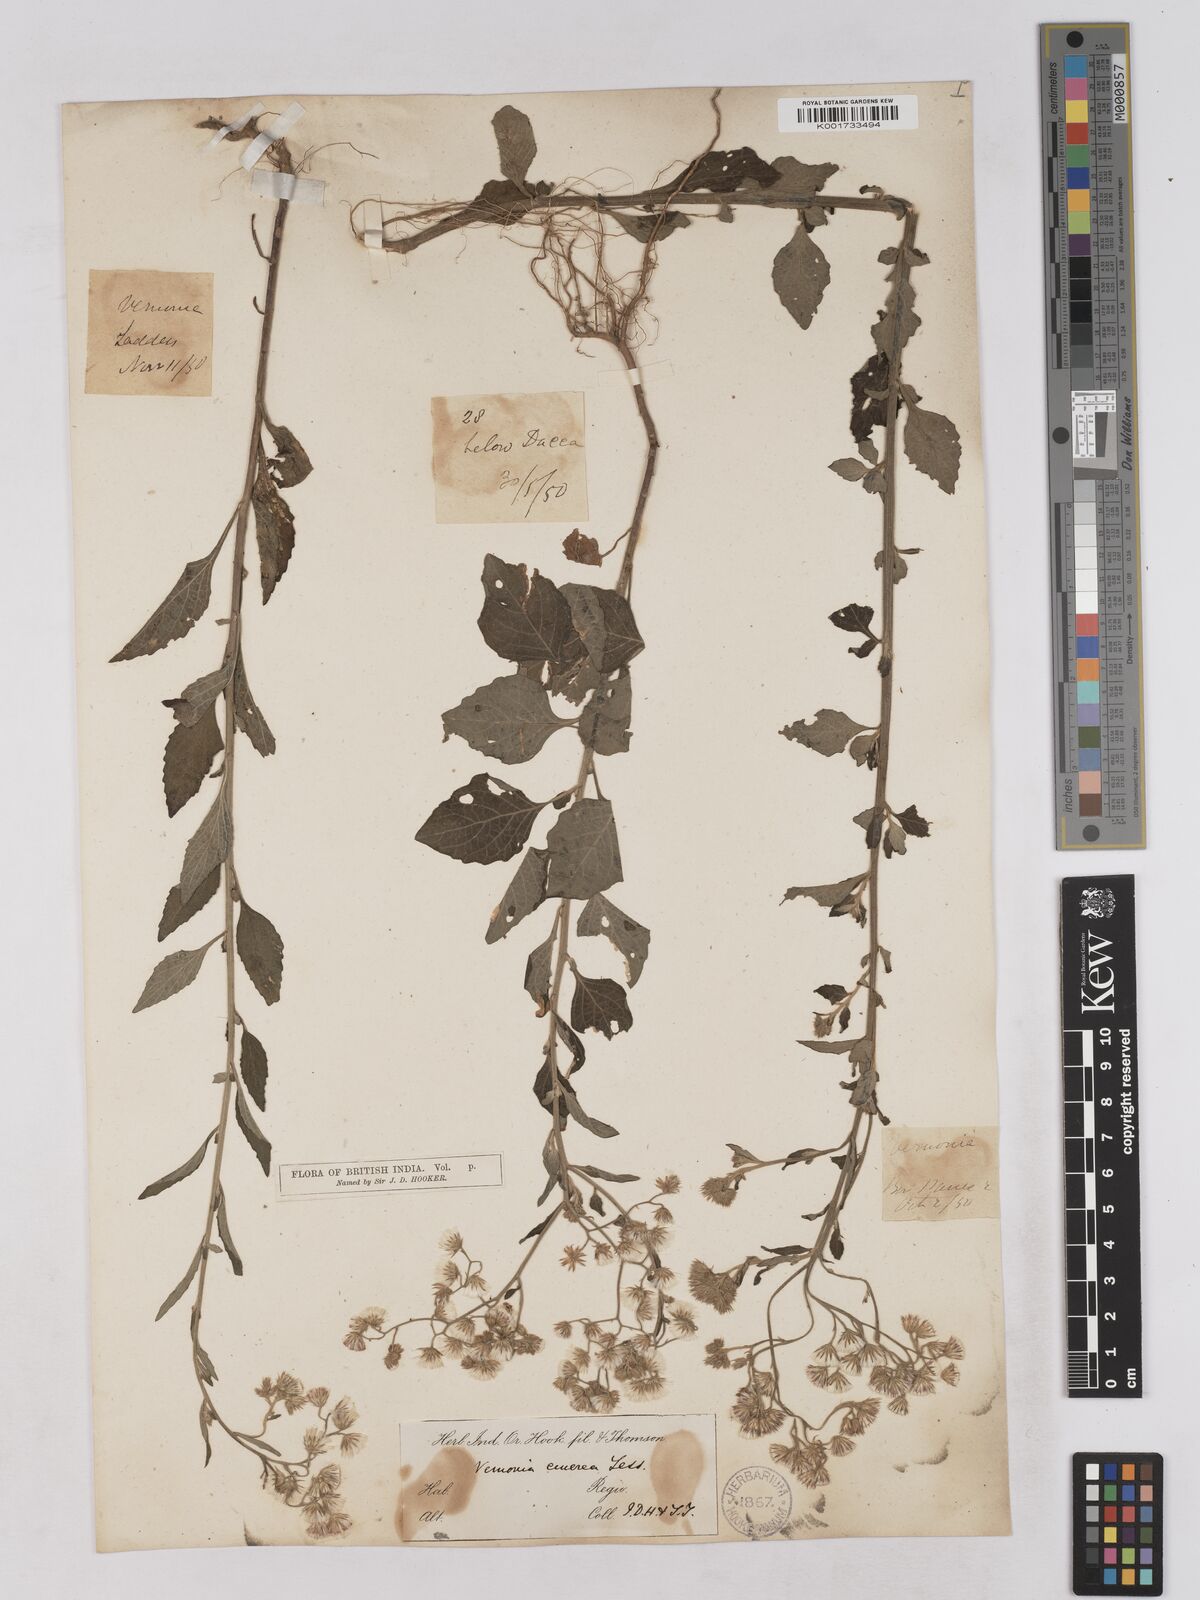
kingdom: Plantae
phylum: Tracheophyta
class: Magnoliopsida
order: Asterales
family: Asteraceae
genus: Cyanthillium
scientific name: Cyanthillium cinereum
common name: Little ironweed
